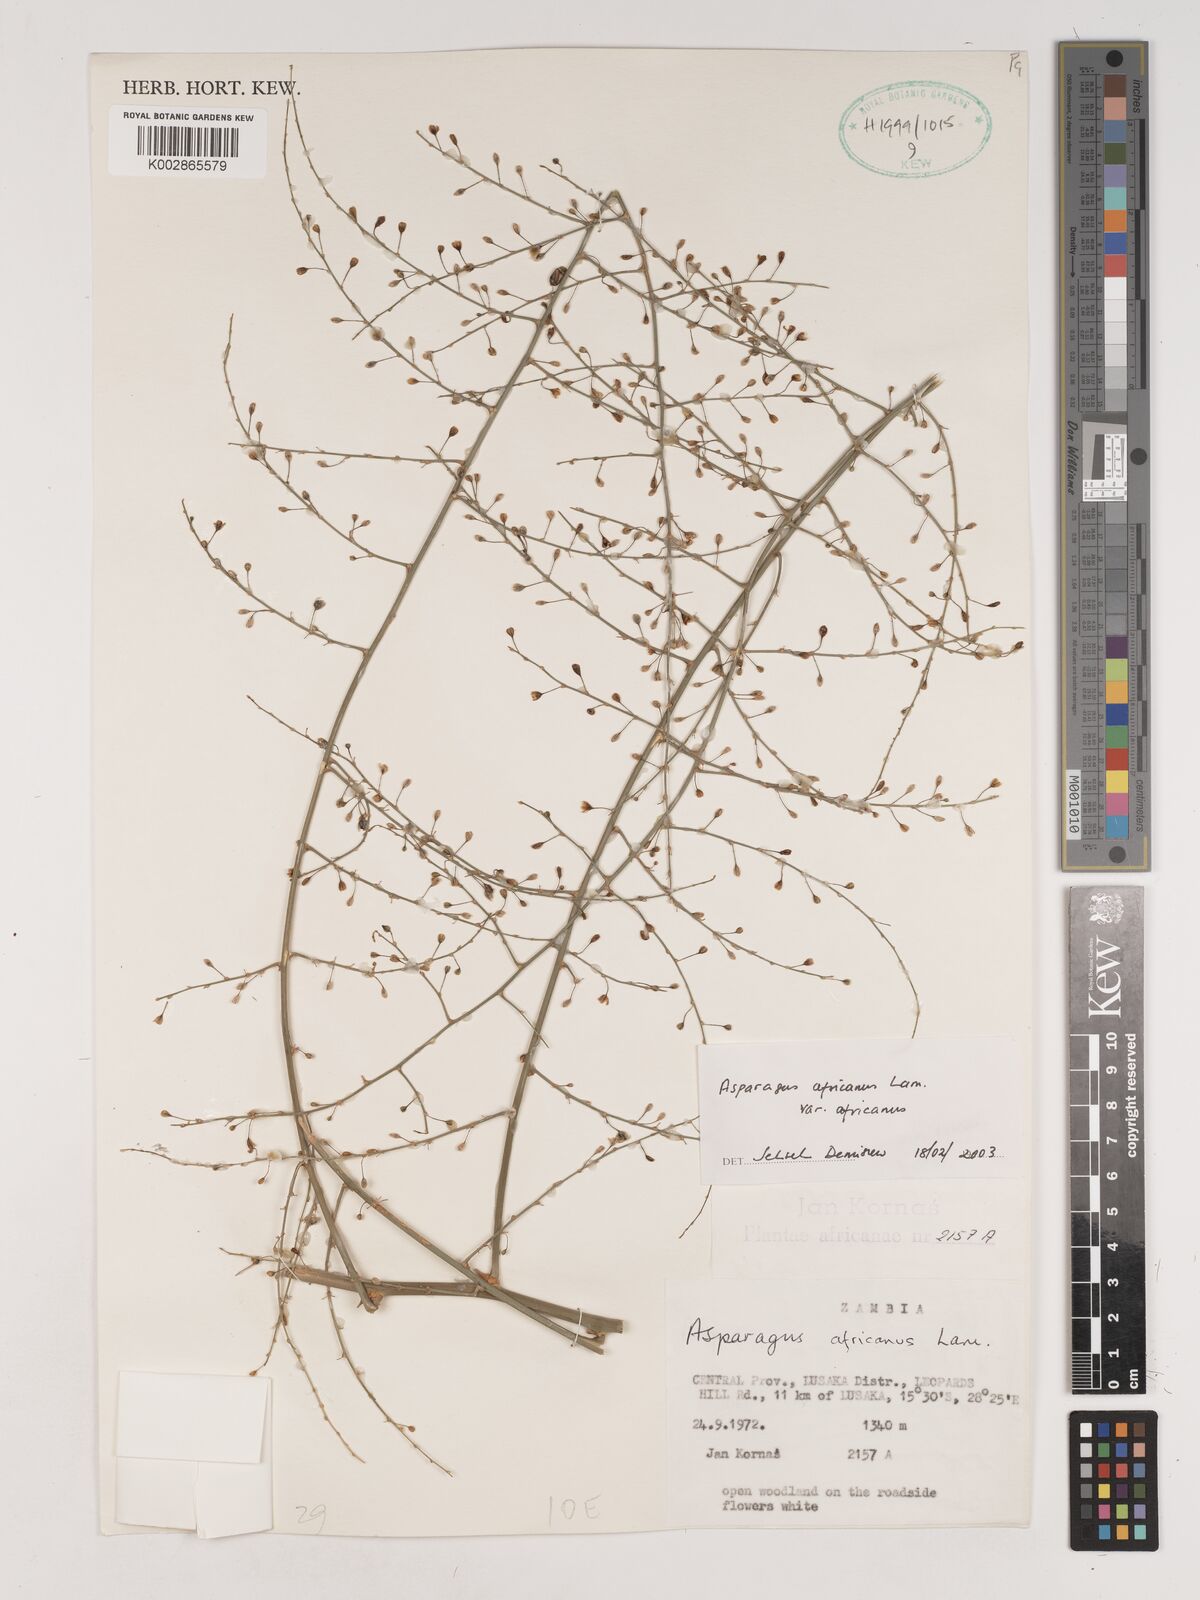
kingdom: Plantae
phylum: Tracheophyta
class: Liliopsida
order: Asparagales
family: Asparagaceae
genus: Asparagus
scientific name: Asparagus africanus
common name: Asparagus-fern
